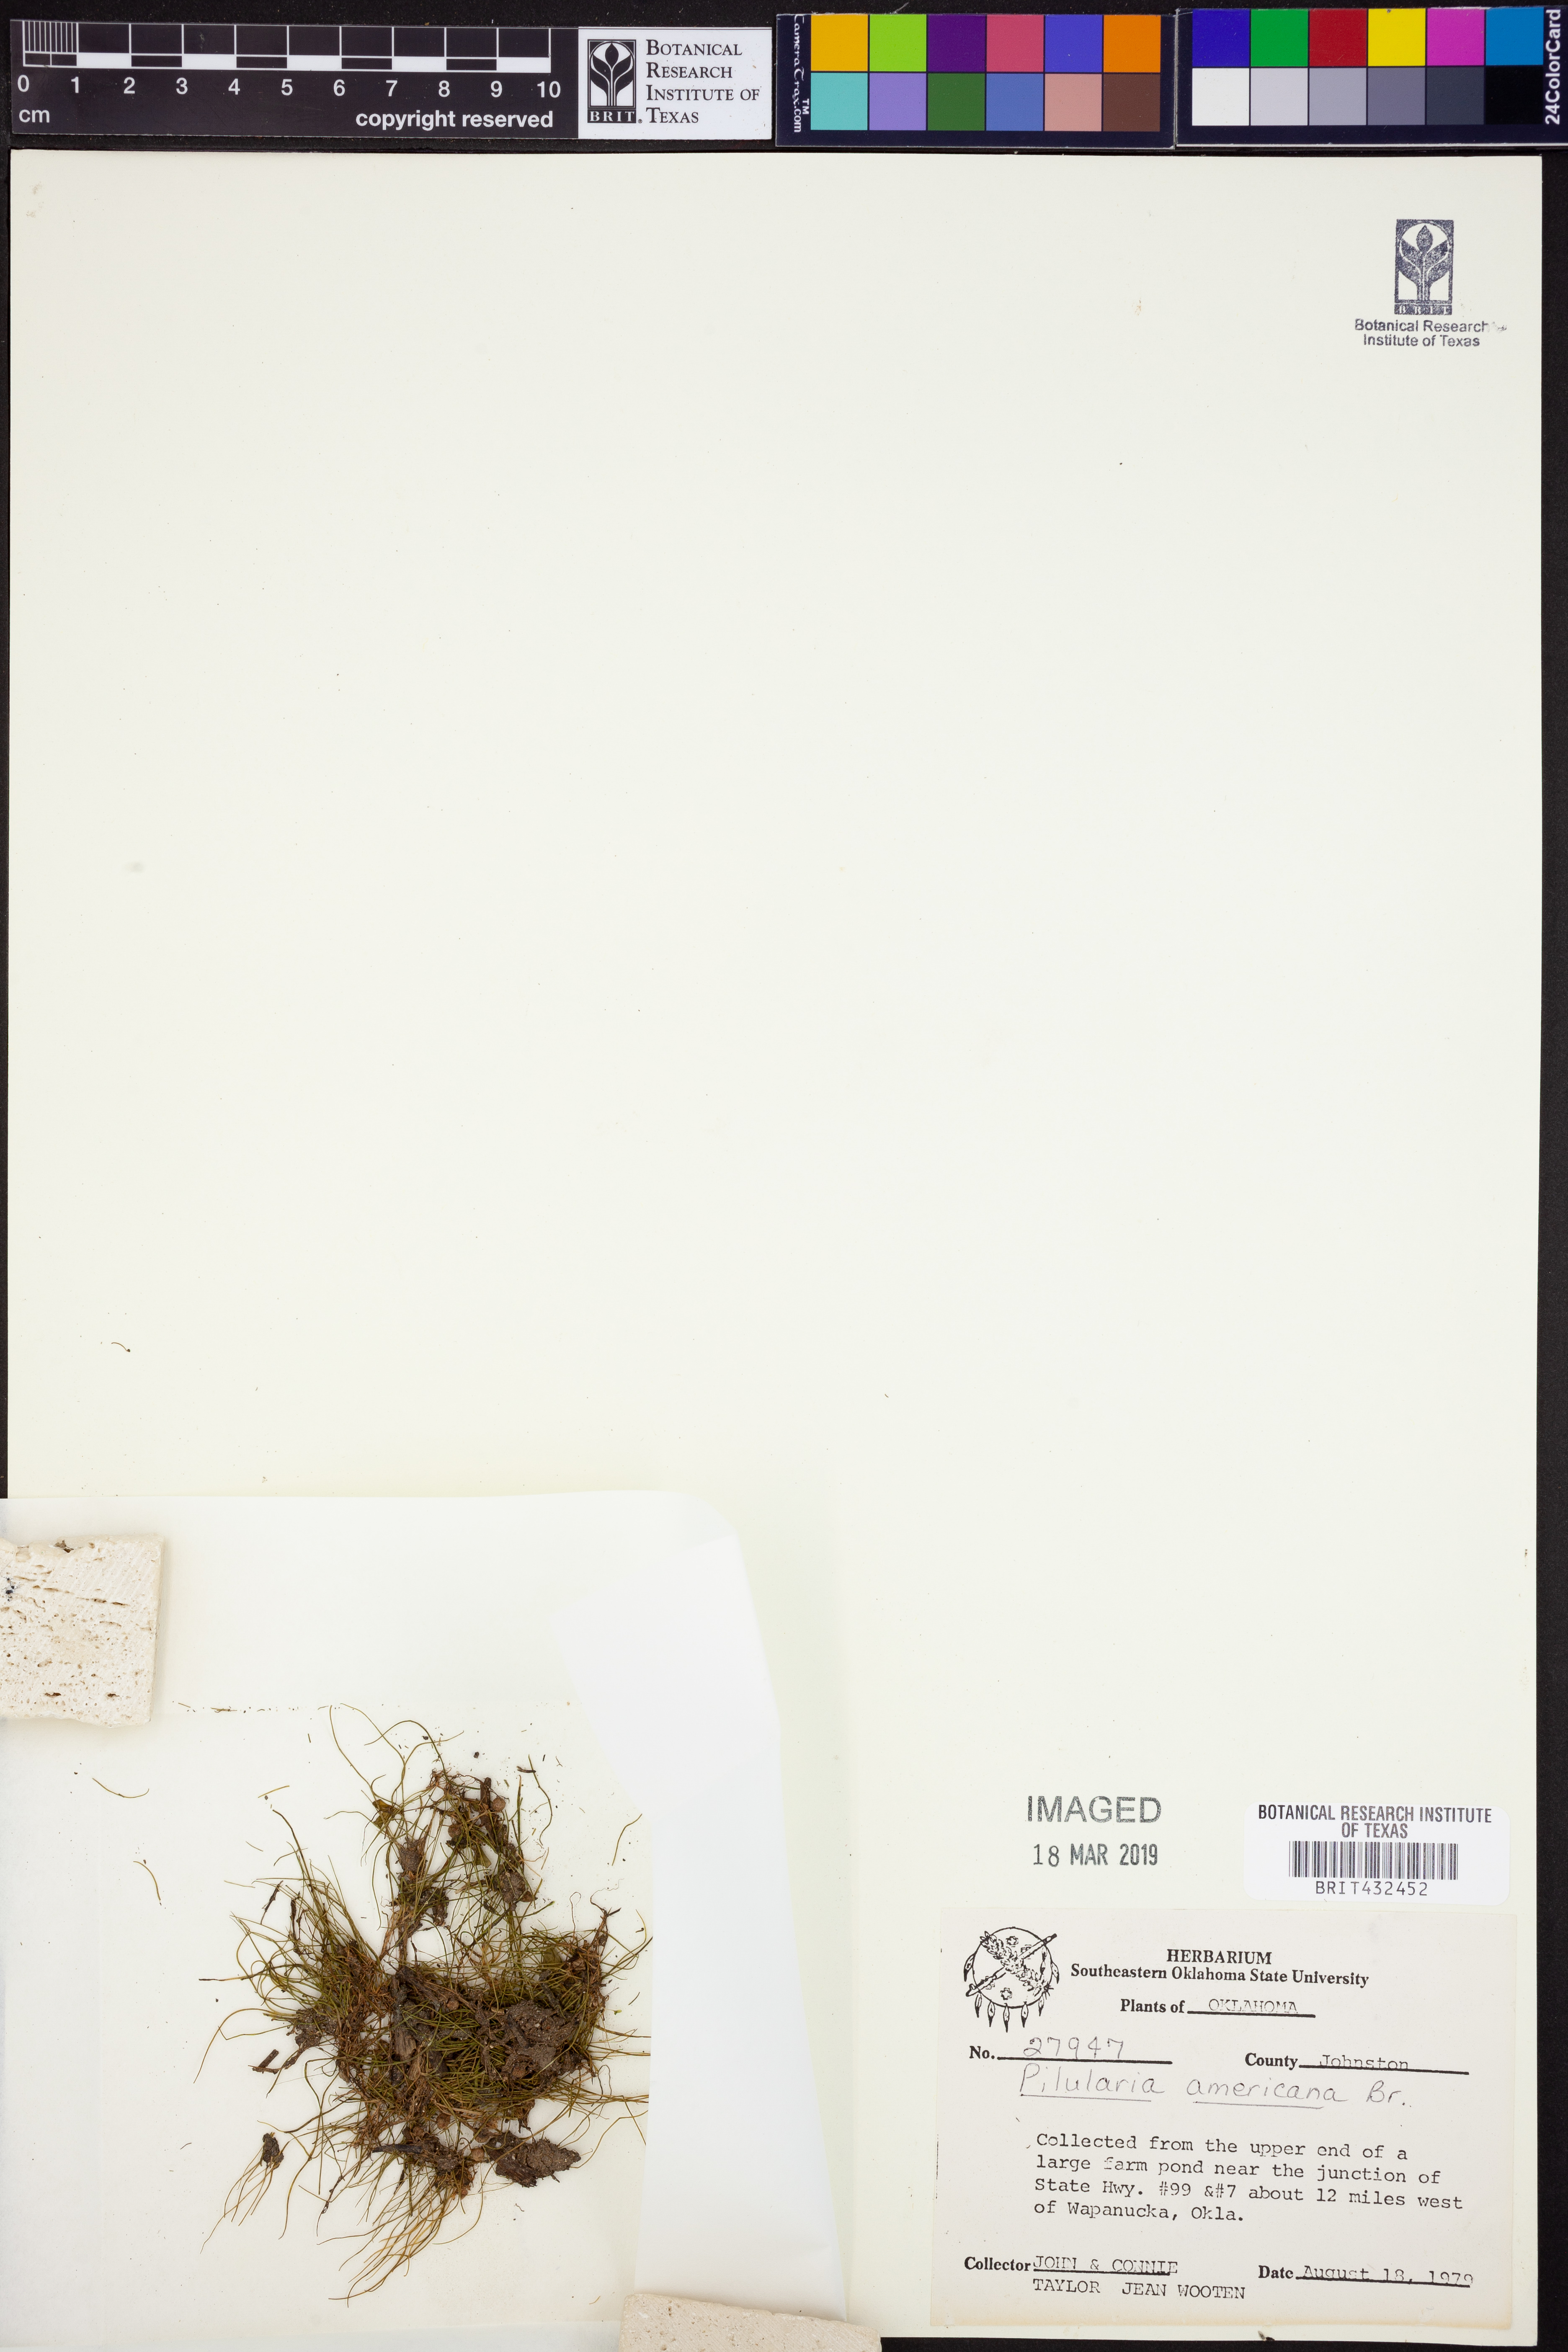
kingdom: Plantae
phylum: Tracheophyta
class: Polypodiopsida
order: Salviniales
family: Marsileaceae
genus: Pilularia
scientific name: Pilularia americana
